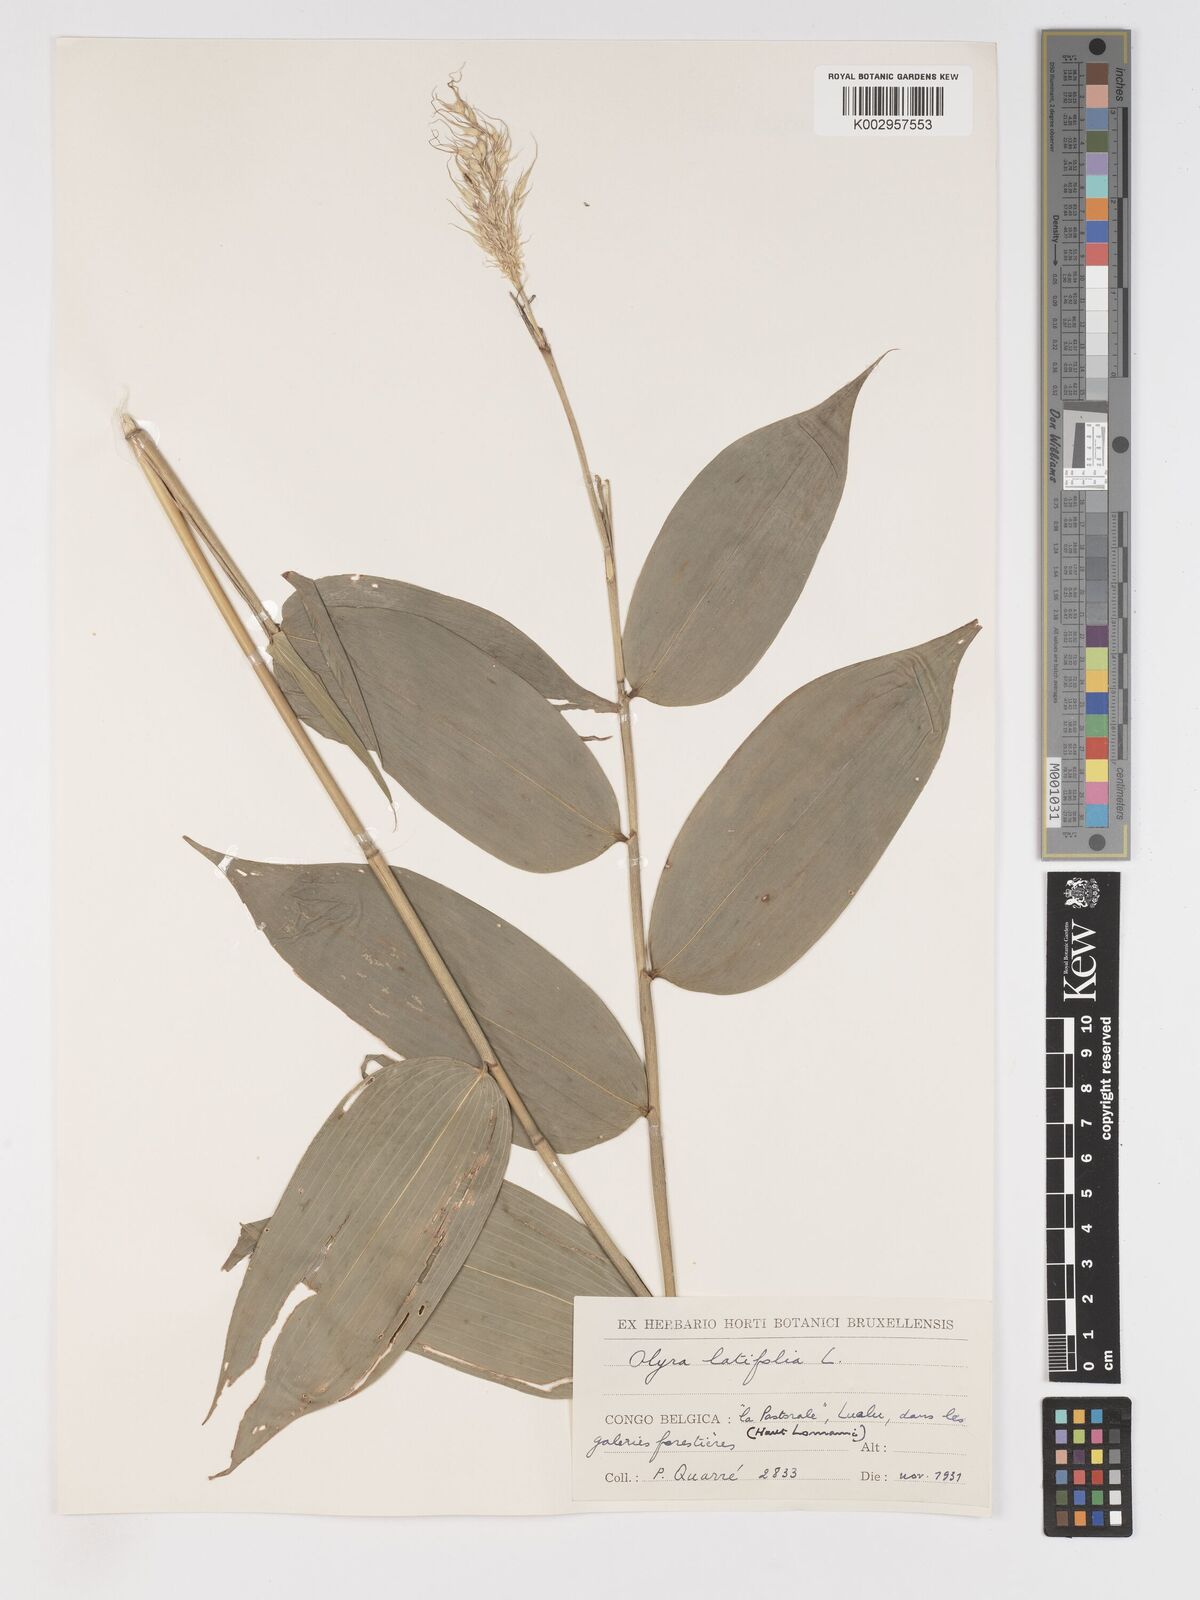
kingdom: Plantae
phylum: Tracheophyta
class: Liliopsida
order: Poales
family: Poaceae
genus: Olyra
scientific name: Olyra latifolia
